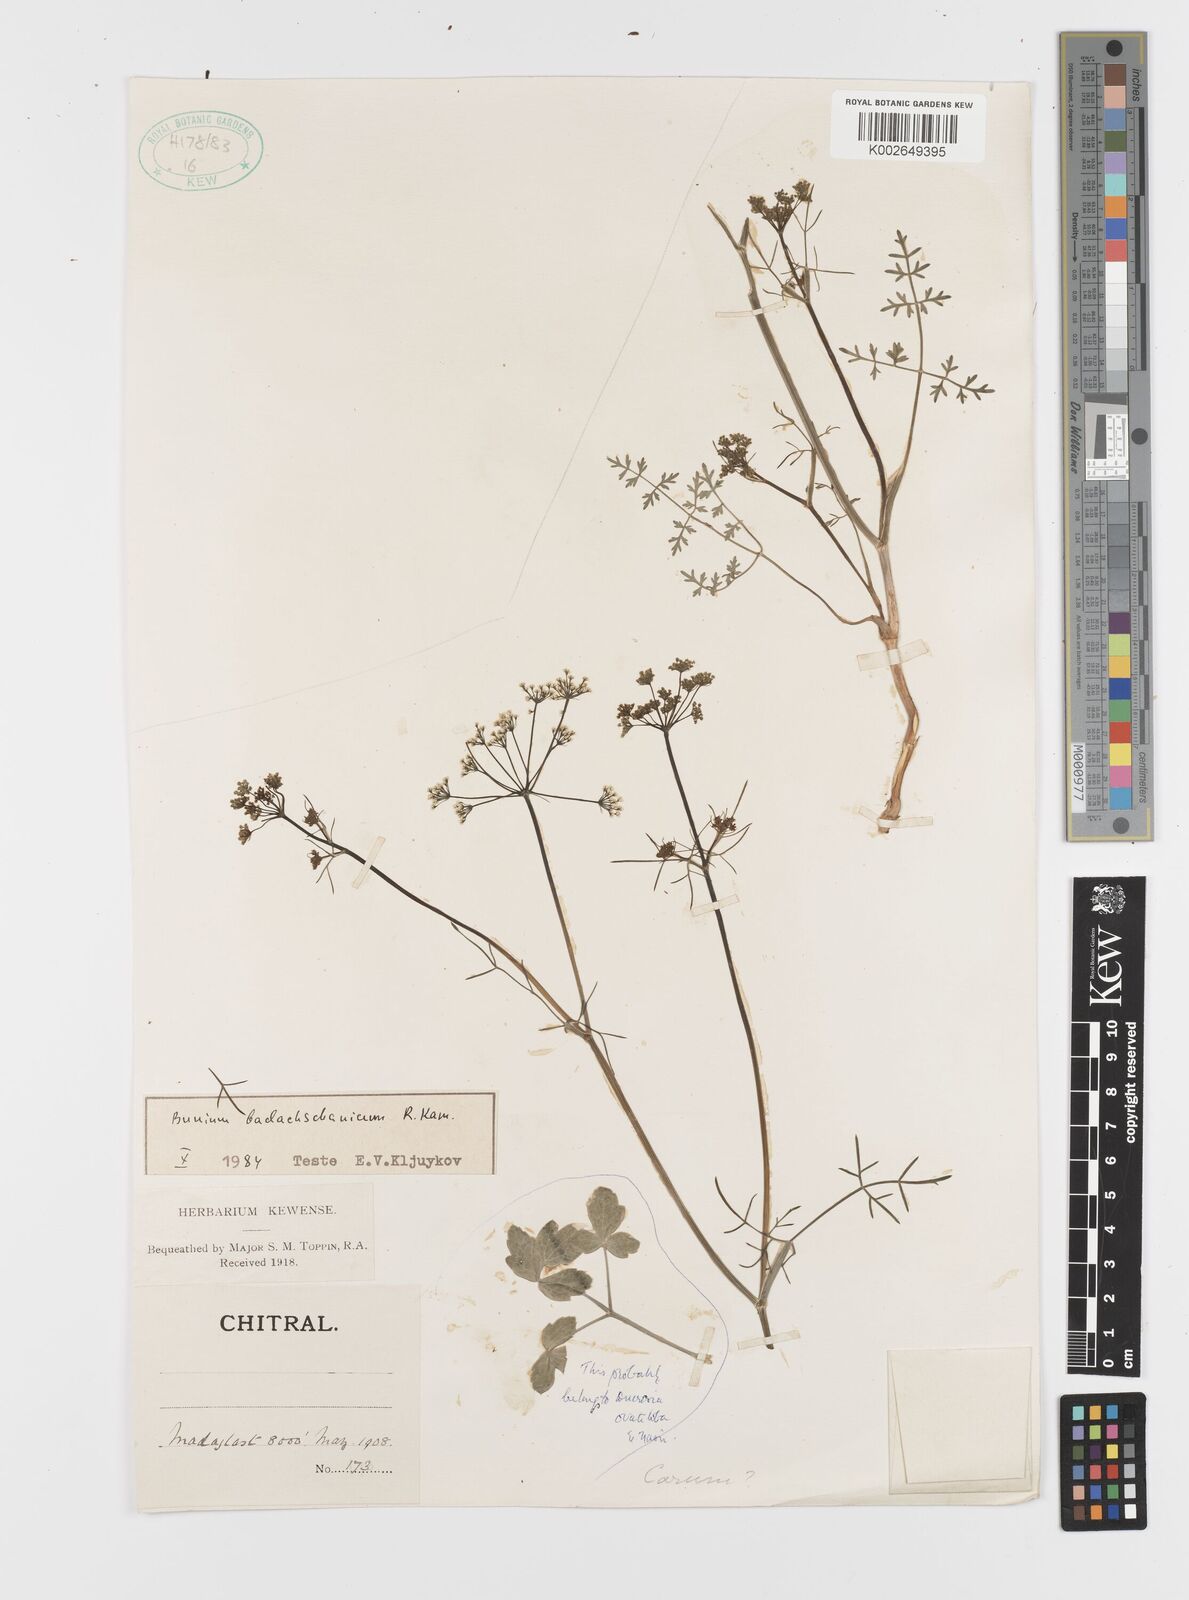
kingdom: Plantae
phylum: Tracheophyta
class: Magnoliopsida
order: Apiales
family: Apiaceae
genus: Elwendia
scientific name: Elwendia badachschanica
